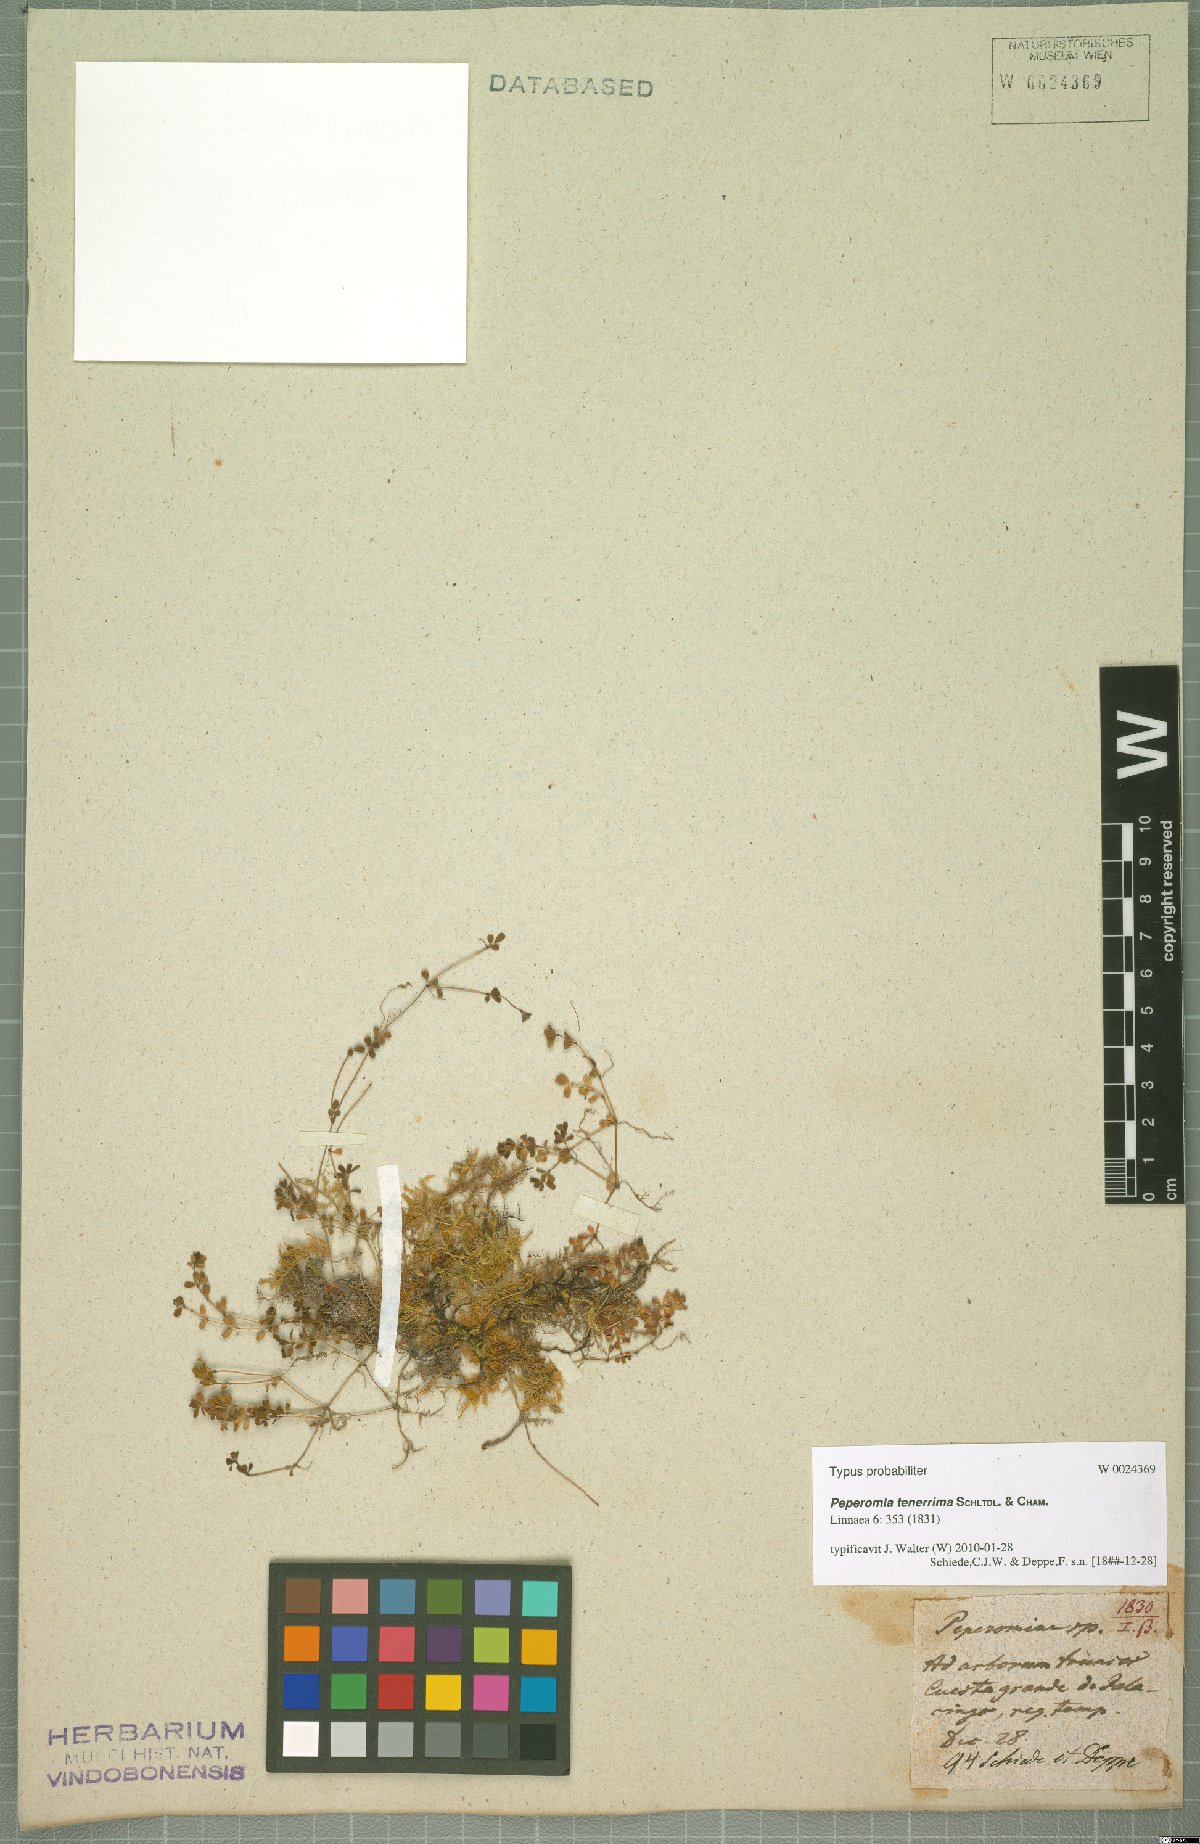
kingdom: Plantae
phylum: Tracheophyta
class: Magnoliopsida
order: Piperales
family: Piperaceae
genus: Peperomia
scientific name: Peperomia tenerrima
